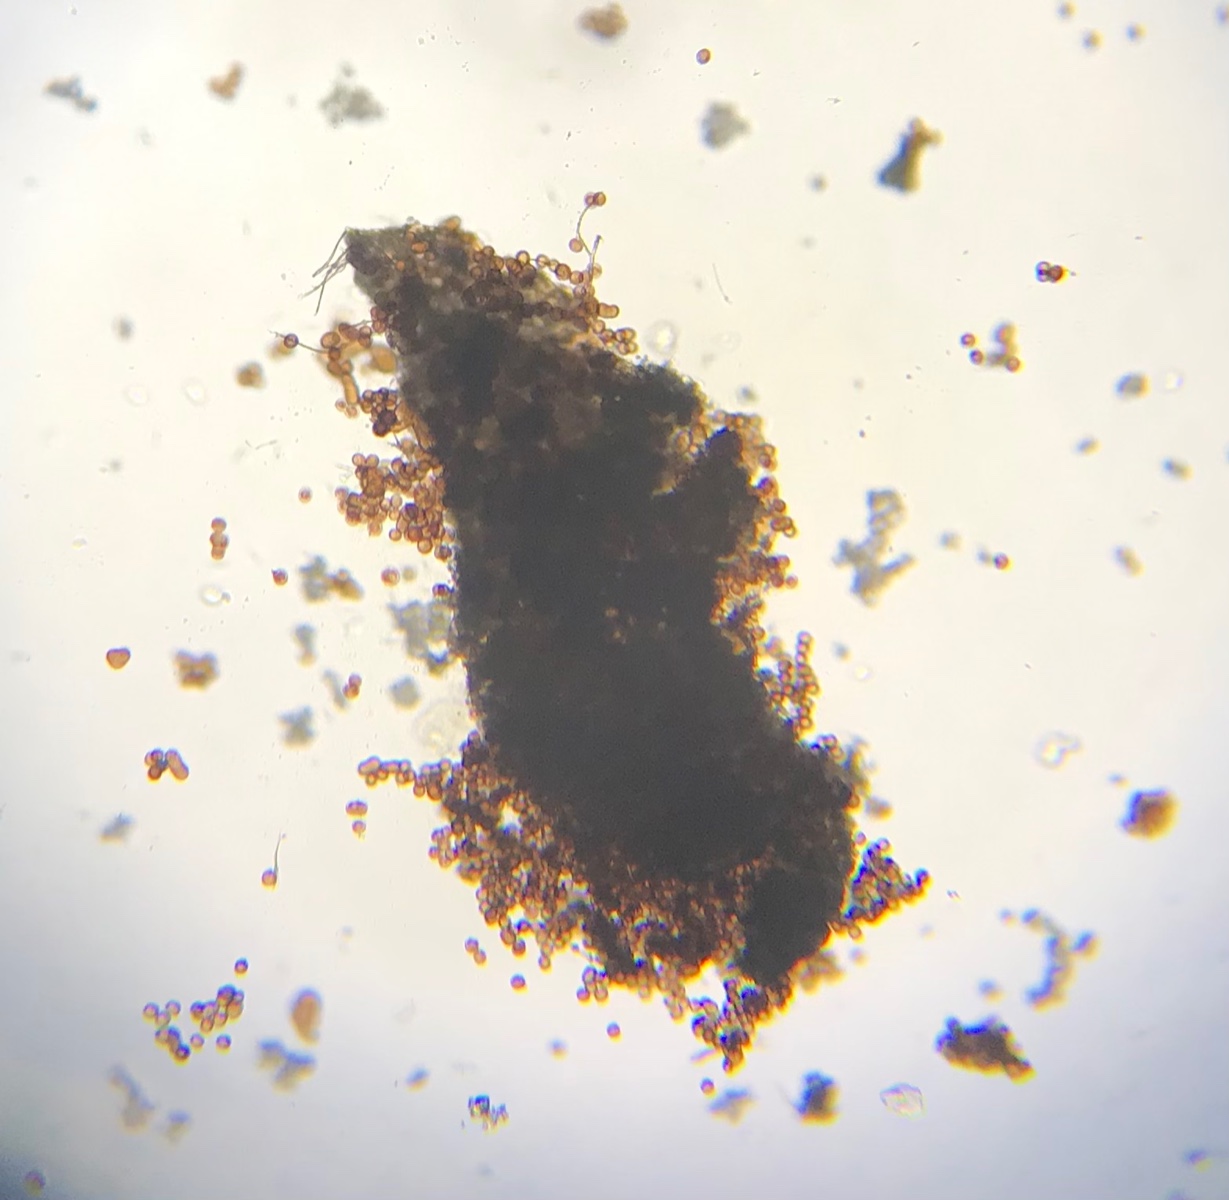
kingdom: Protozoa
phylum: Mycetozoa
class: Myxomycetes
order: Physarales
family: Didymiaceae
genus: Didymium
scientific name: Didymium comatum
